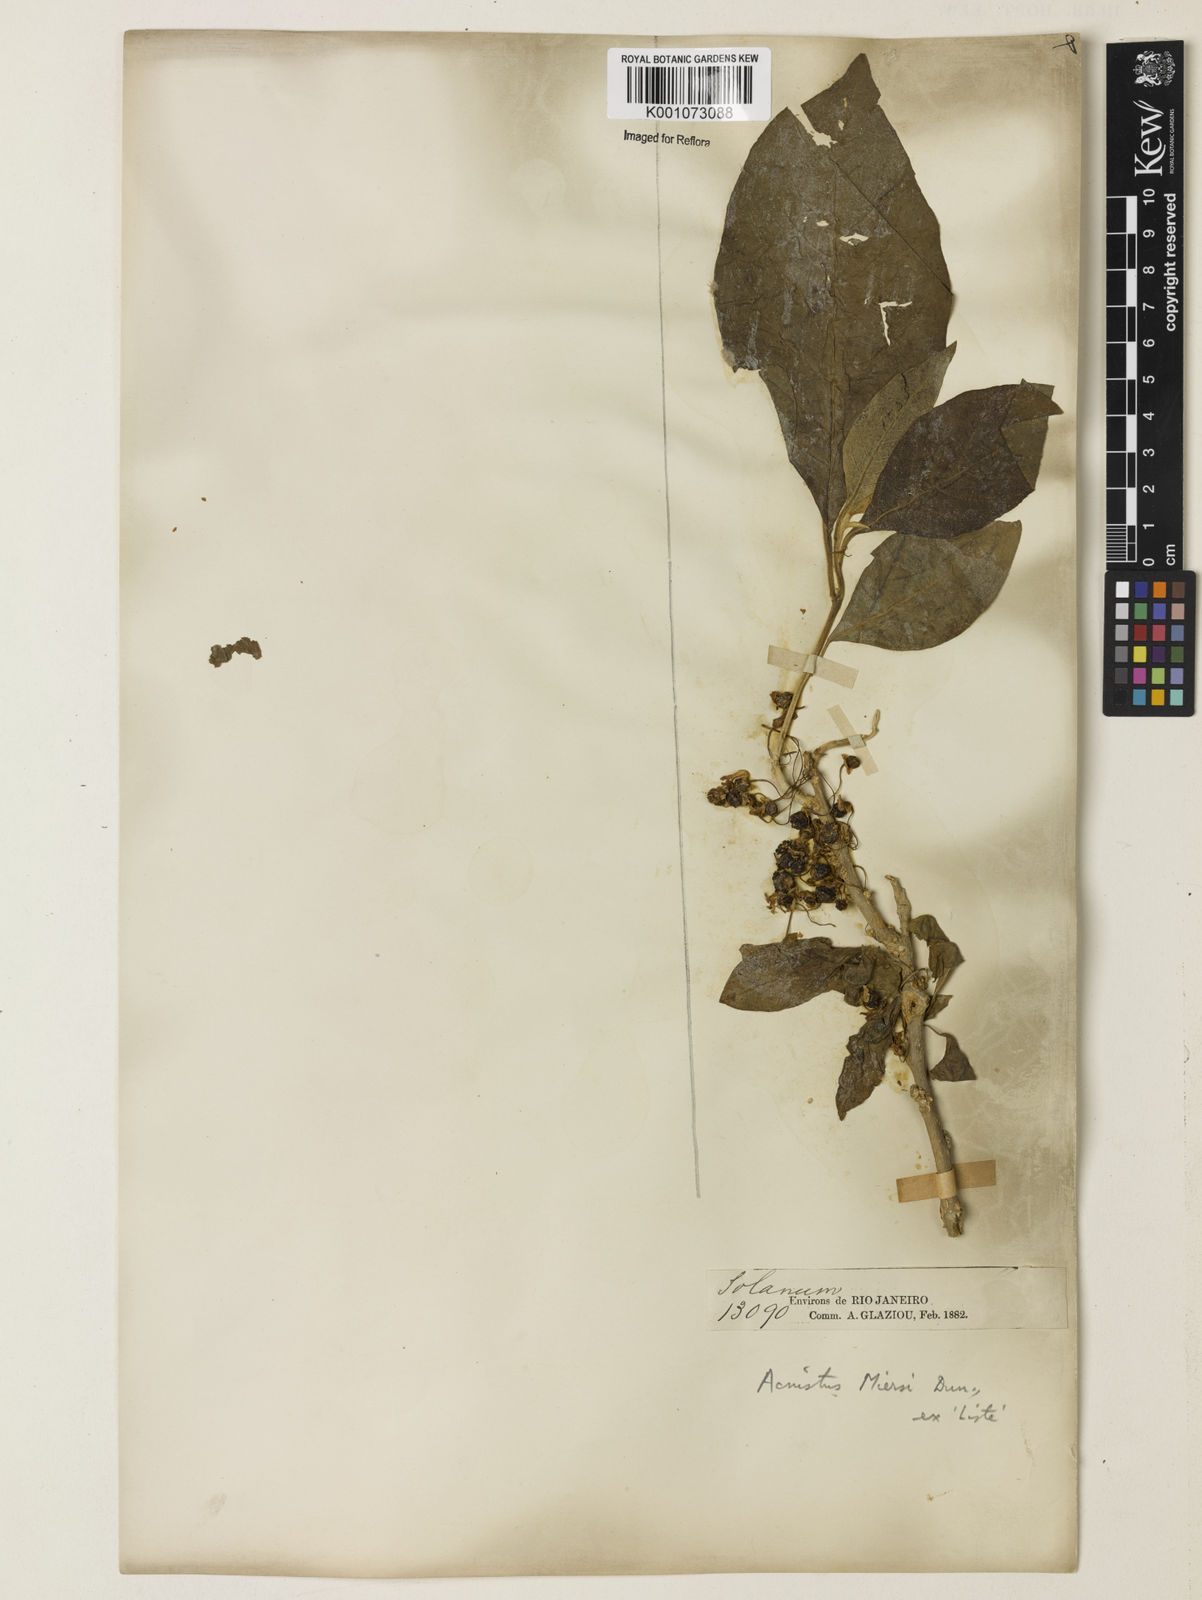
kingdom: Plantae
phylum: Tracheophyta
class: Magnoliopsida
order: Solanales
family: Solanaceae
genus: Iochroma
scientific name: Iochroma arborescens
